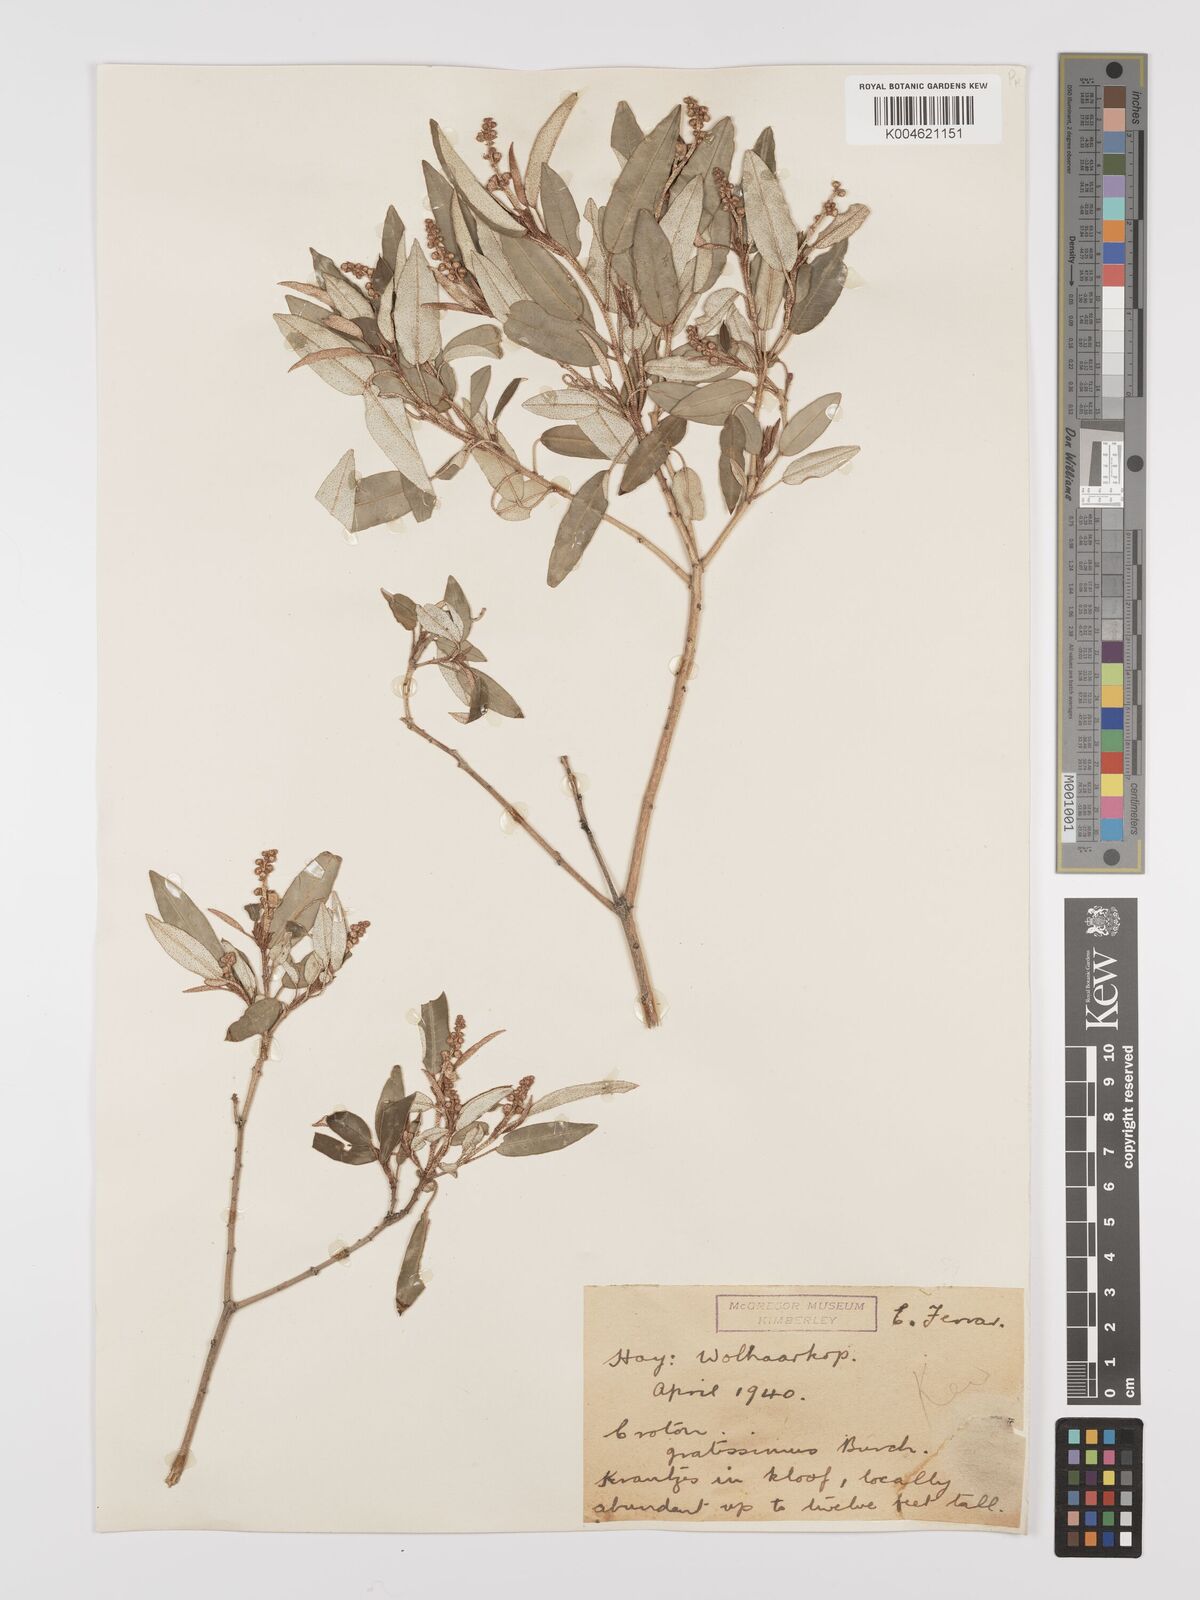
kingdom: Plantae
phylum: Tracheophyta
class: Magnoliopsida
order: Malpighiales
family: Euphorbiaceae
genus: Croton
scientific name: Croton gratissimus
